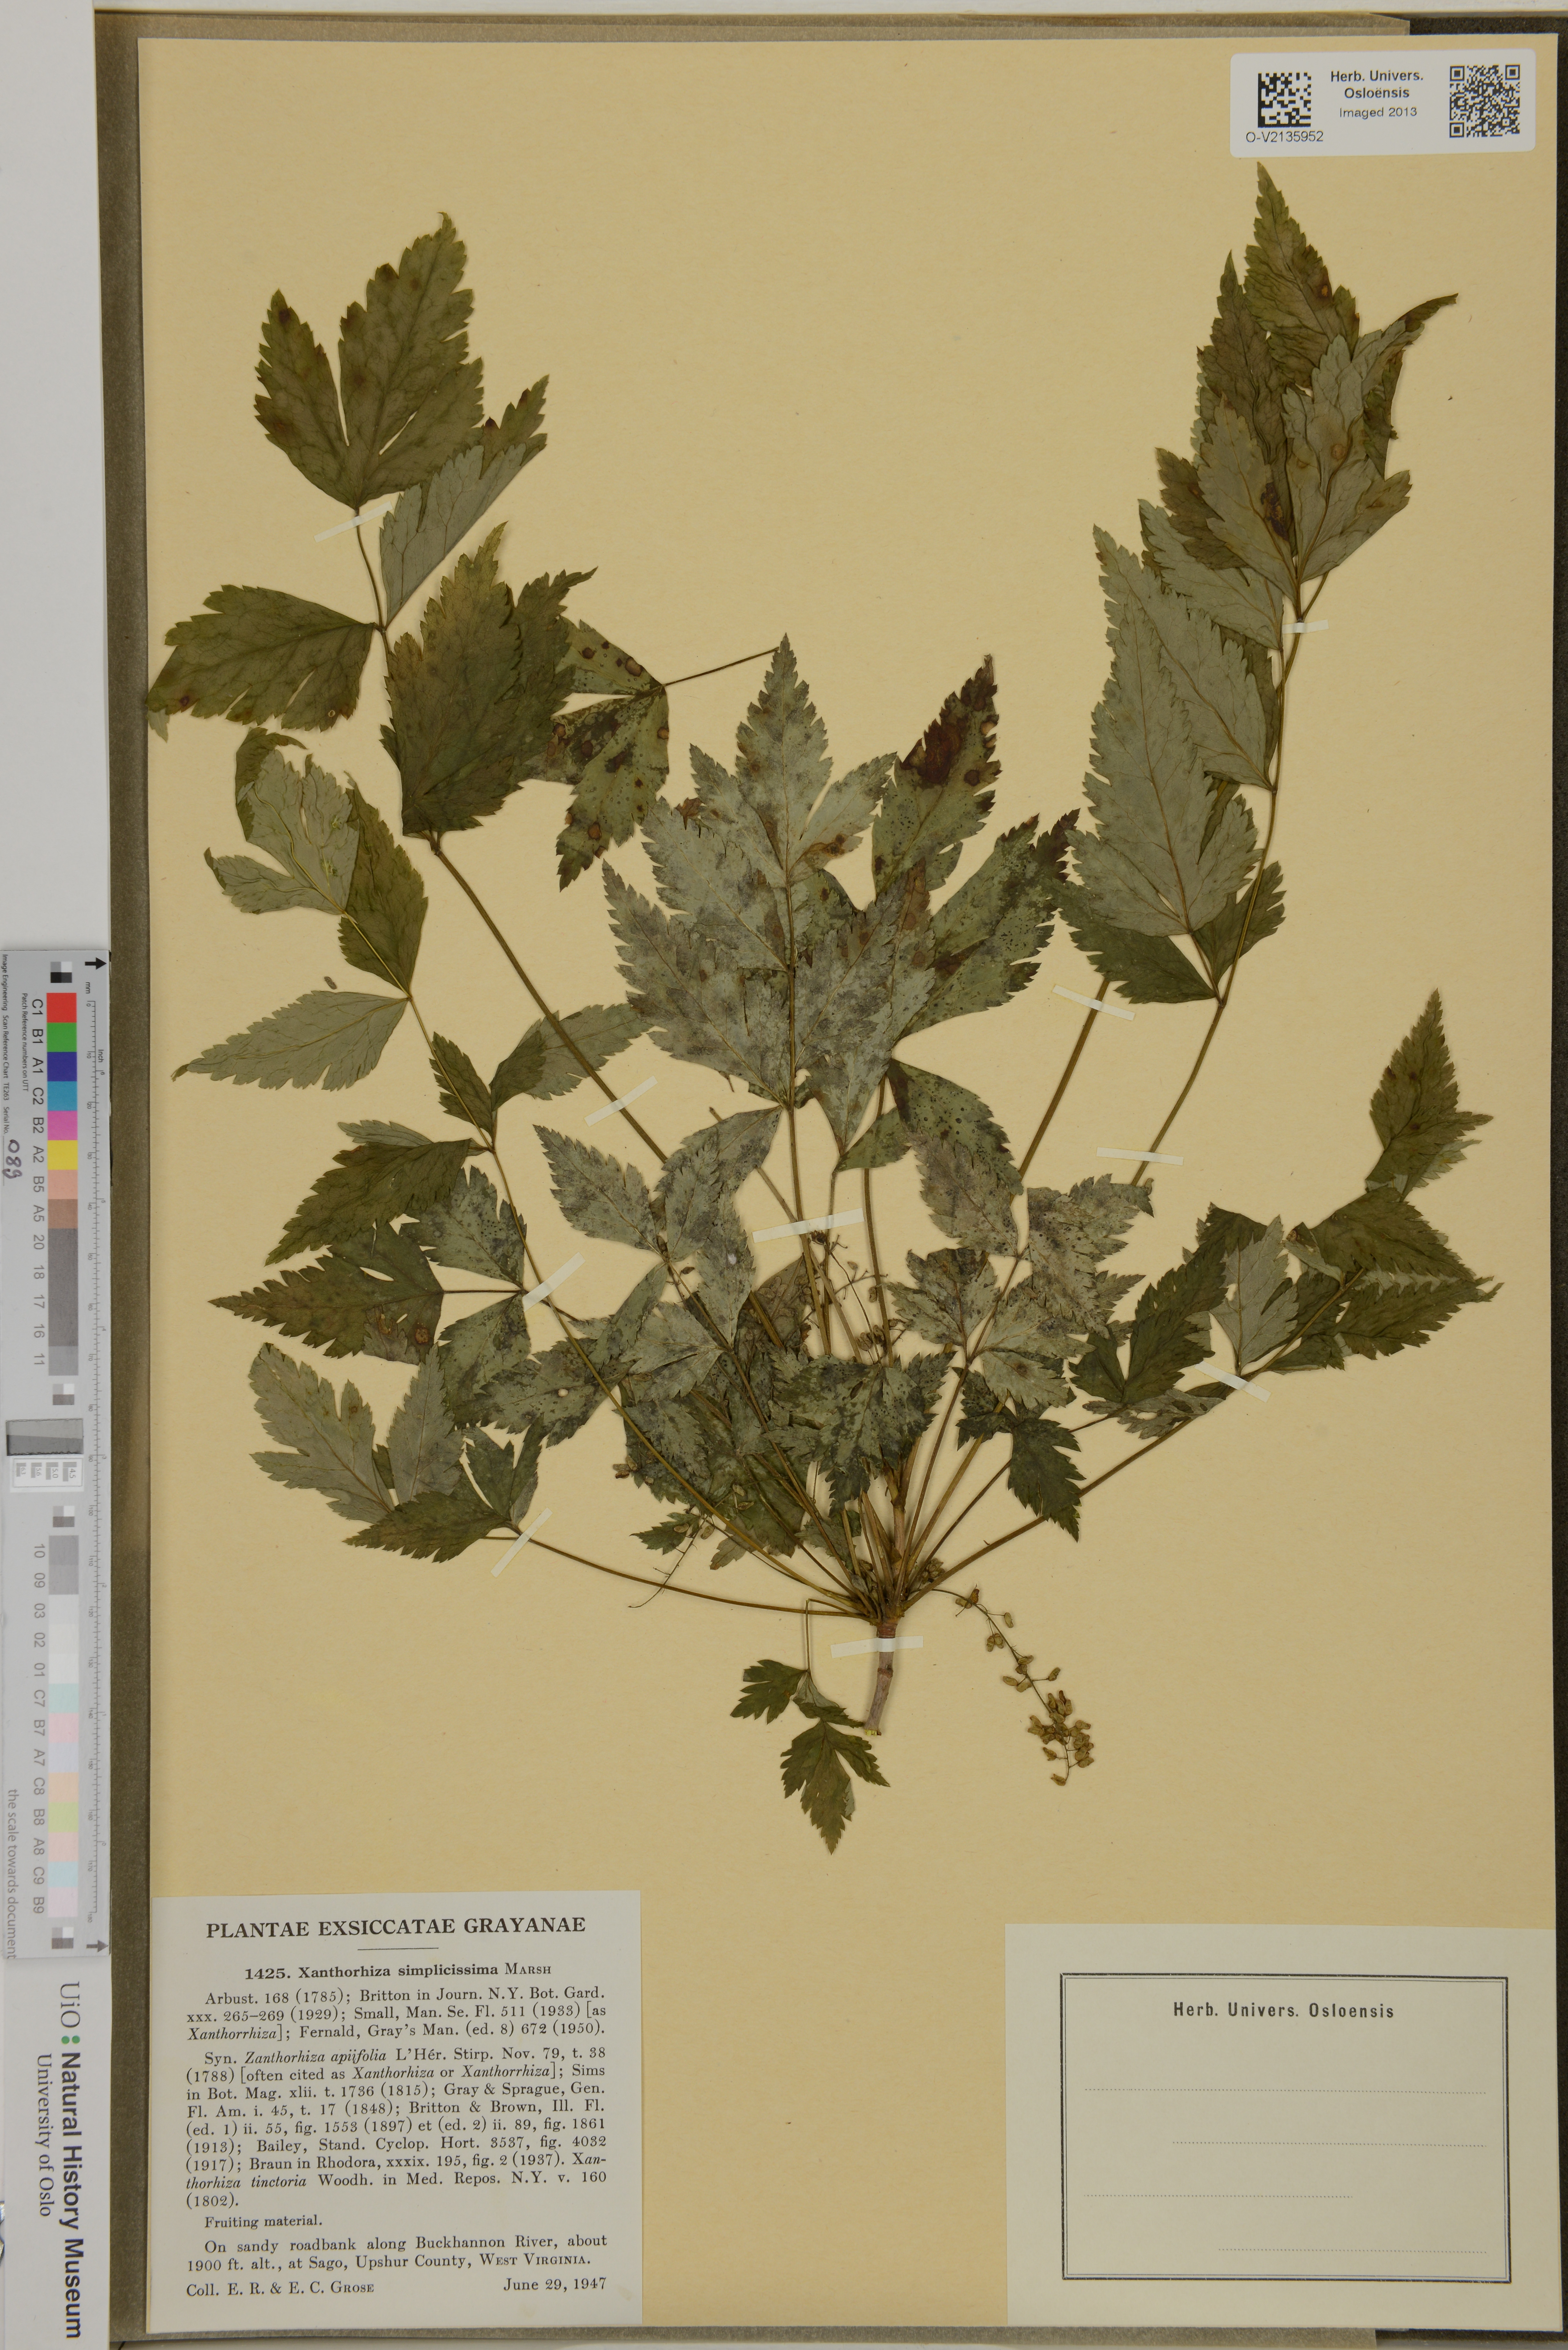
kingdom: Plantae
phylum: Tracheophyta
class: Magnoliopsida
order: Ranunculales
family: Ranunculaceae
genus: Xanthorhiza
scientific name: Xanthorhiza simplicissima
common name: Yellowroot
